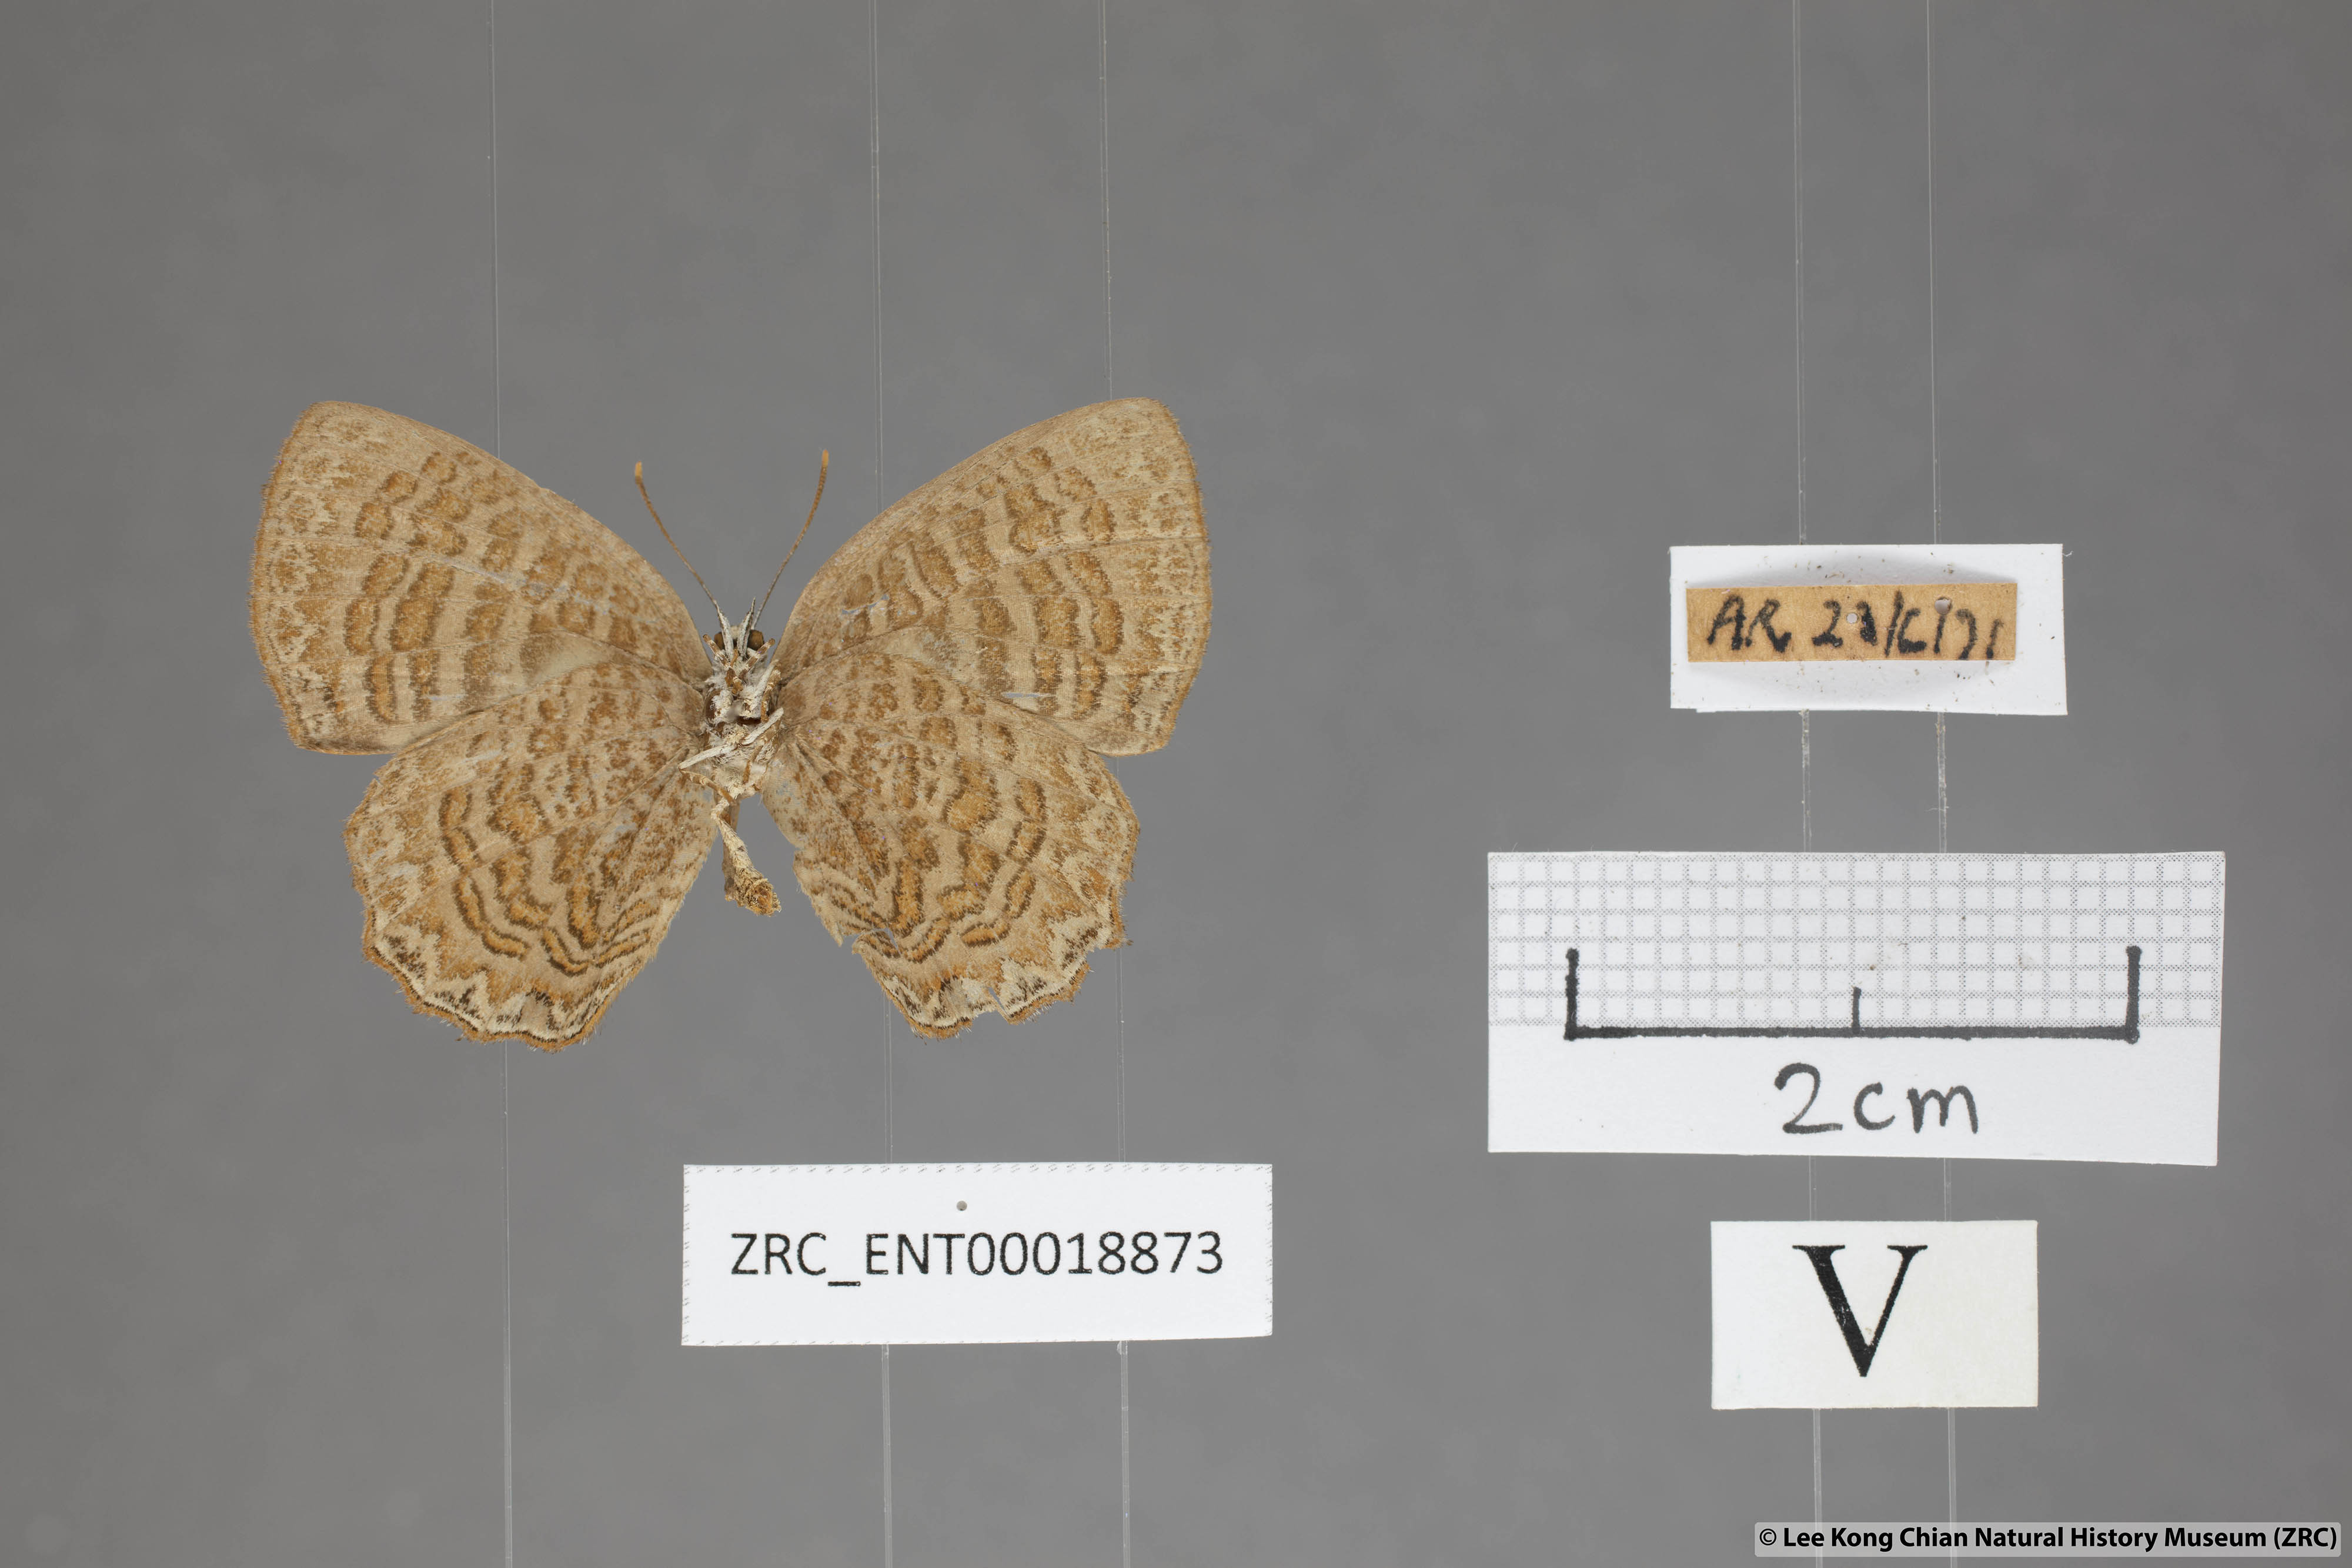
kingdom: Animalia
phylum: Arthropoda
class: Insecta
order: Lepidoptera
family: Lycaenidae
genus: Poritia
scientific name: Poritia sumatrae
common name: Sumatran gem
